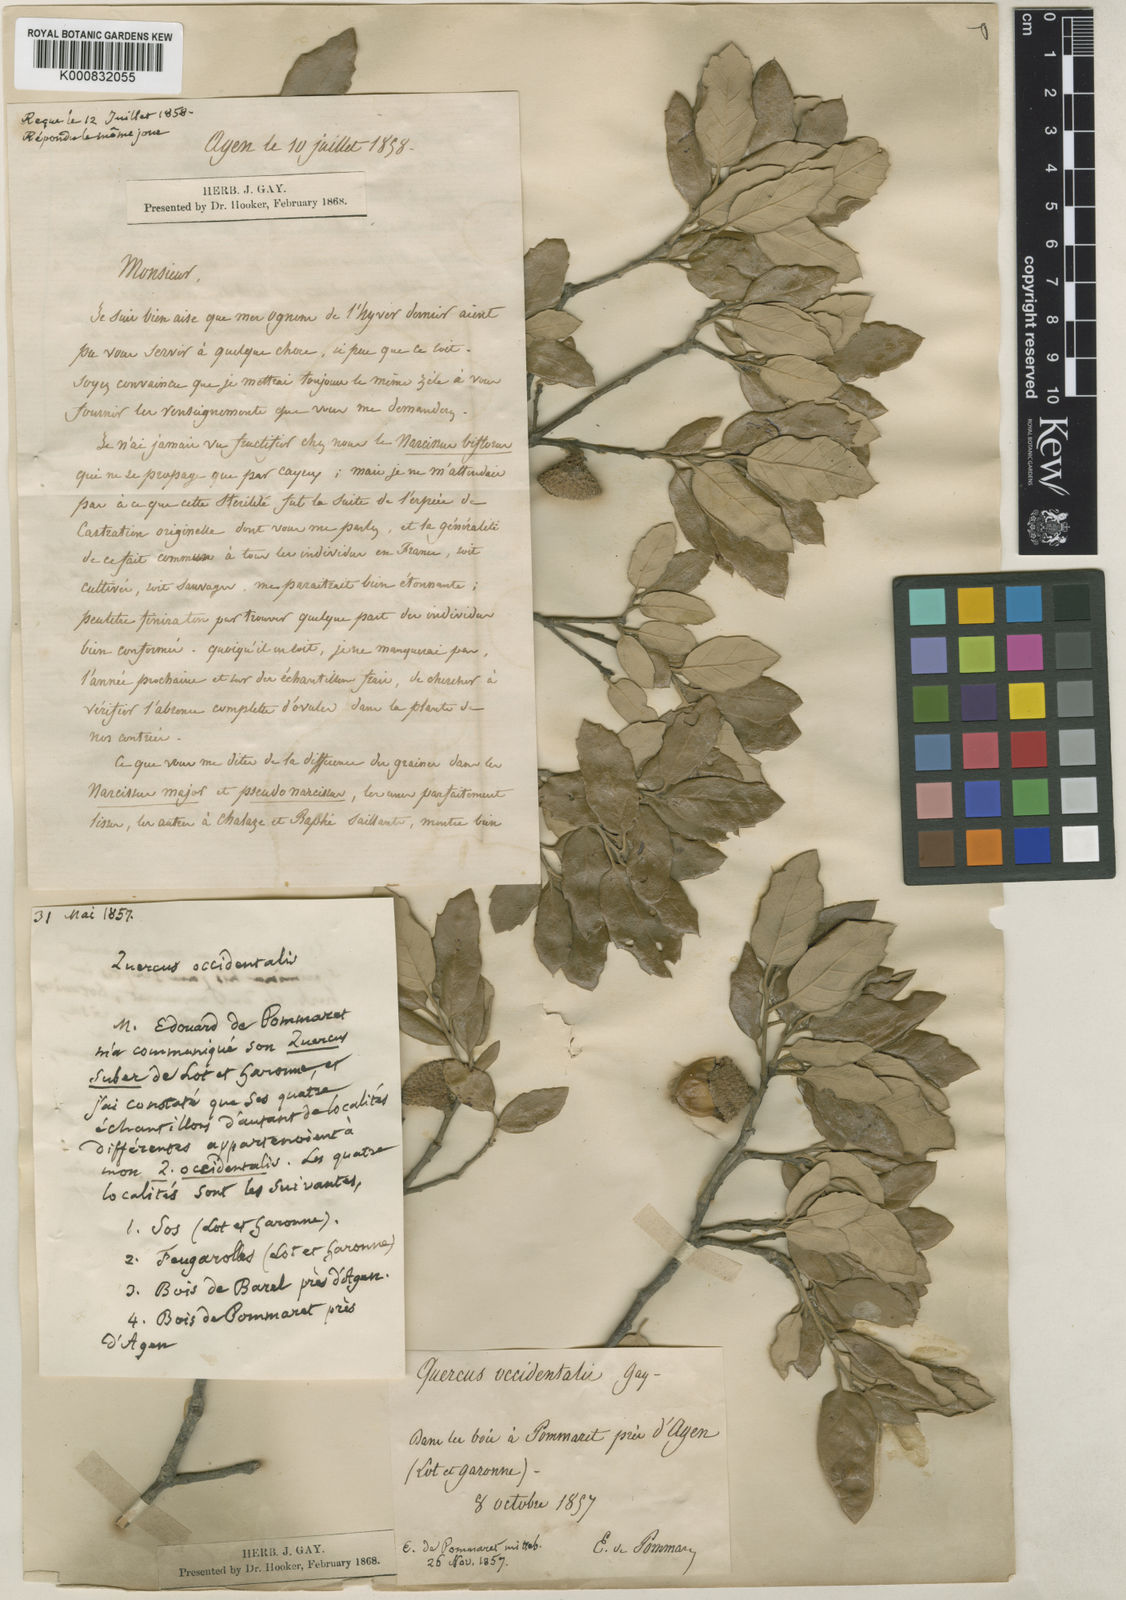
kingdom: Plantae
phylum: Tracheophyta
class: Magnoliopsida
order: Fagales
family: Fagaceae
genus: Quercus
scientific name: Quercus suber
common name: Cork oak
